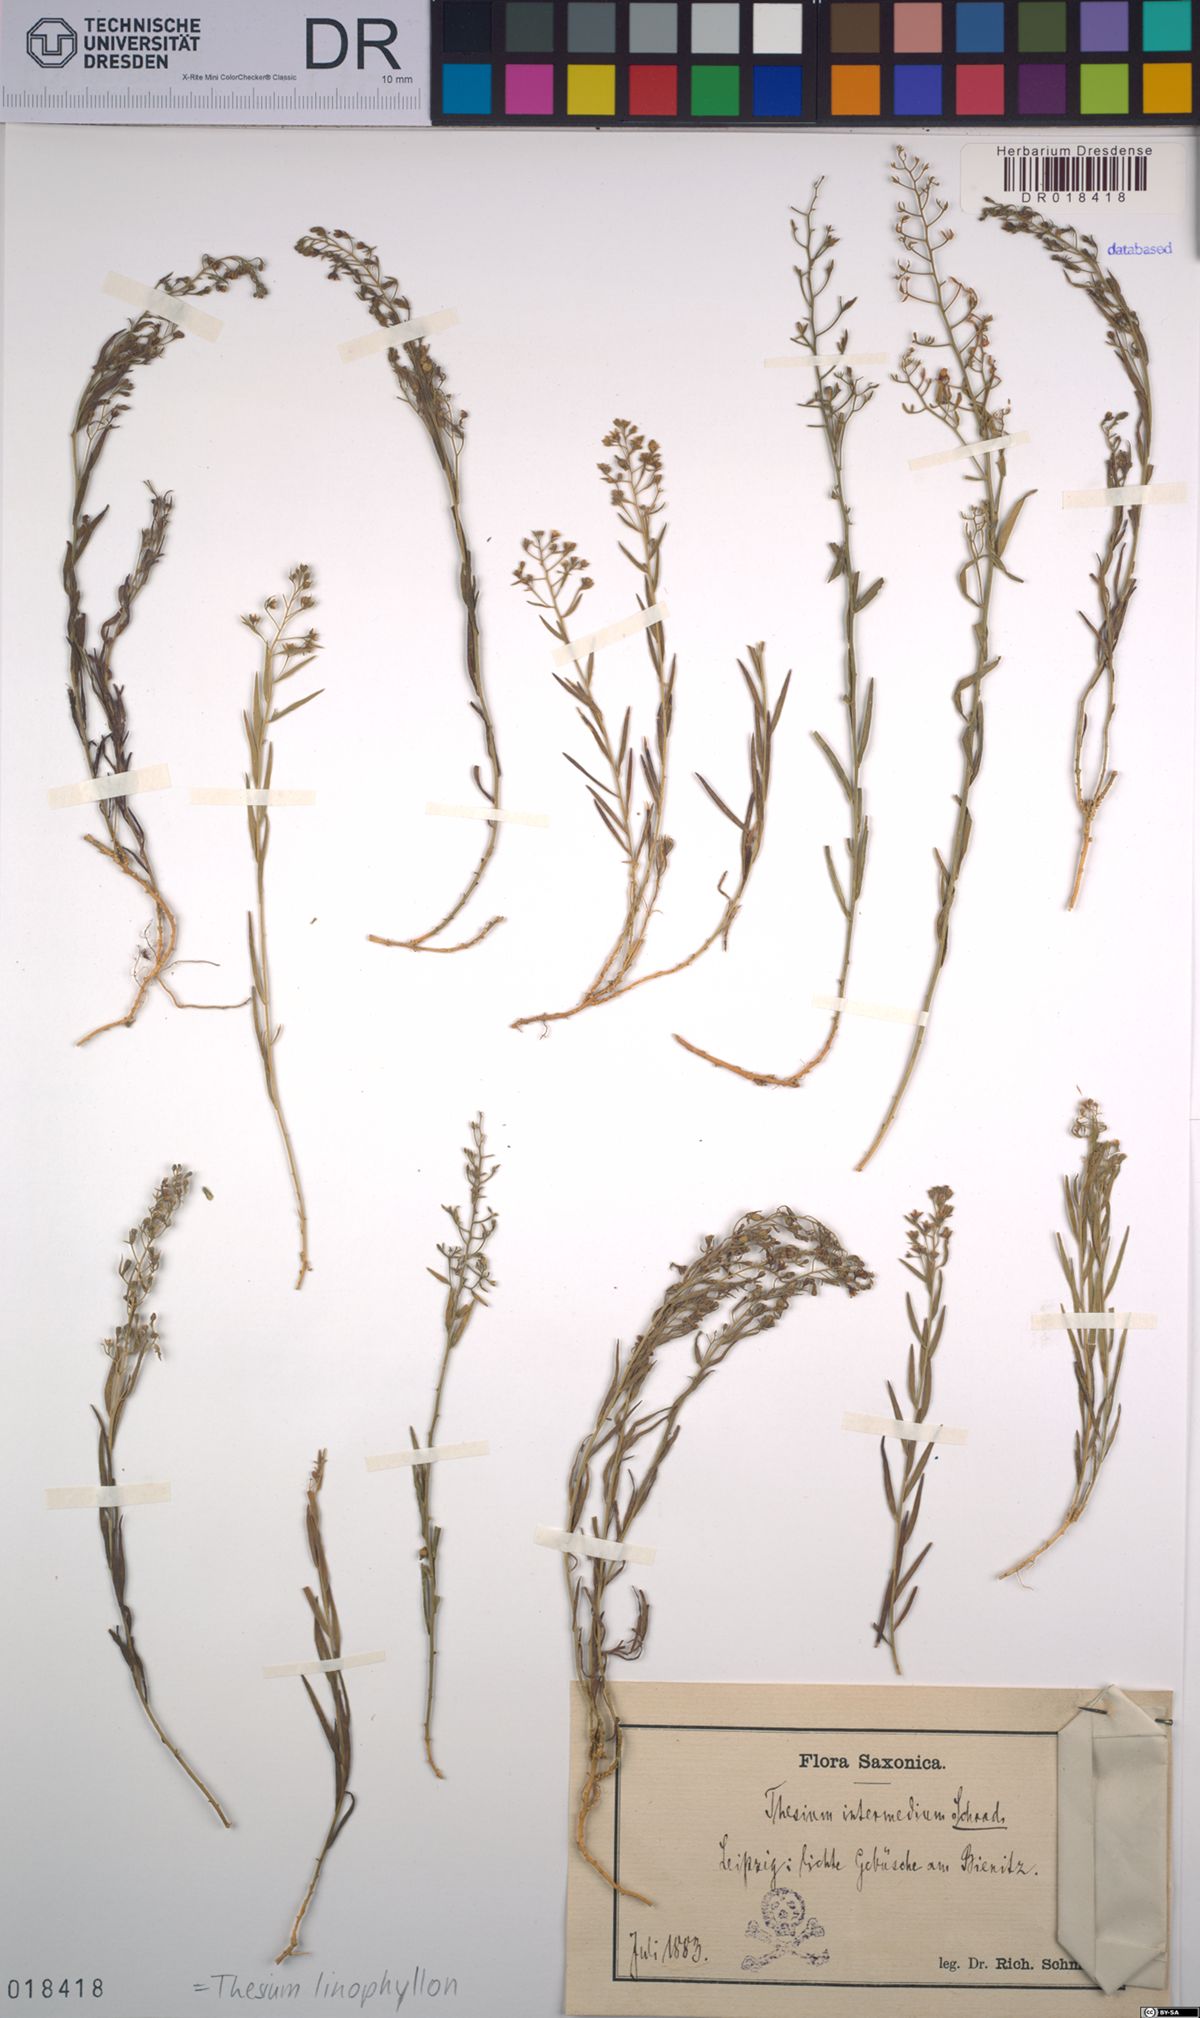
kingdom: Plantae
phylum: Tracheophyta
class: Magnoliopsida
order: Santalales
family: Thesiaceae
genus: Thesium
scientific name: Thesium linophyllon
